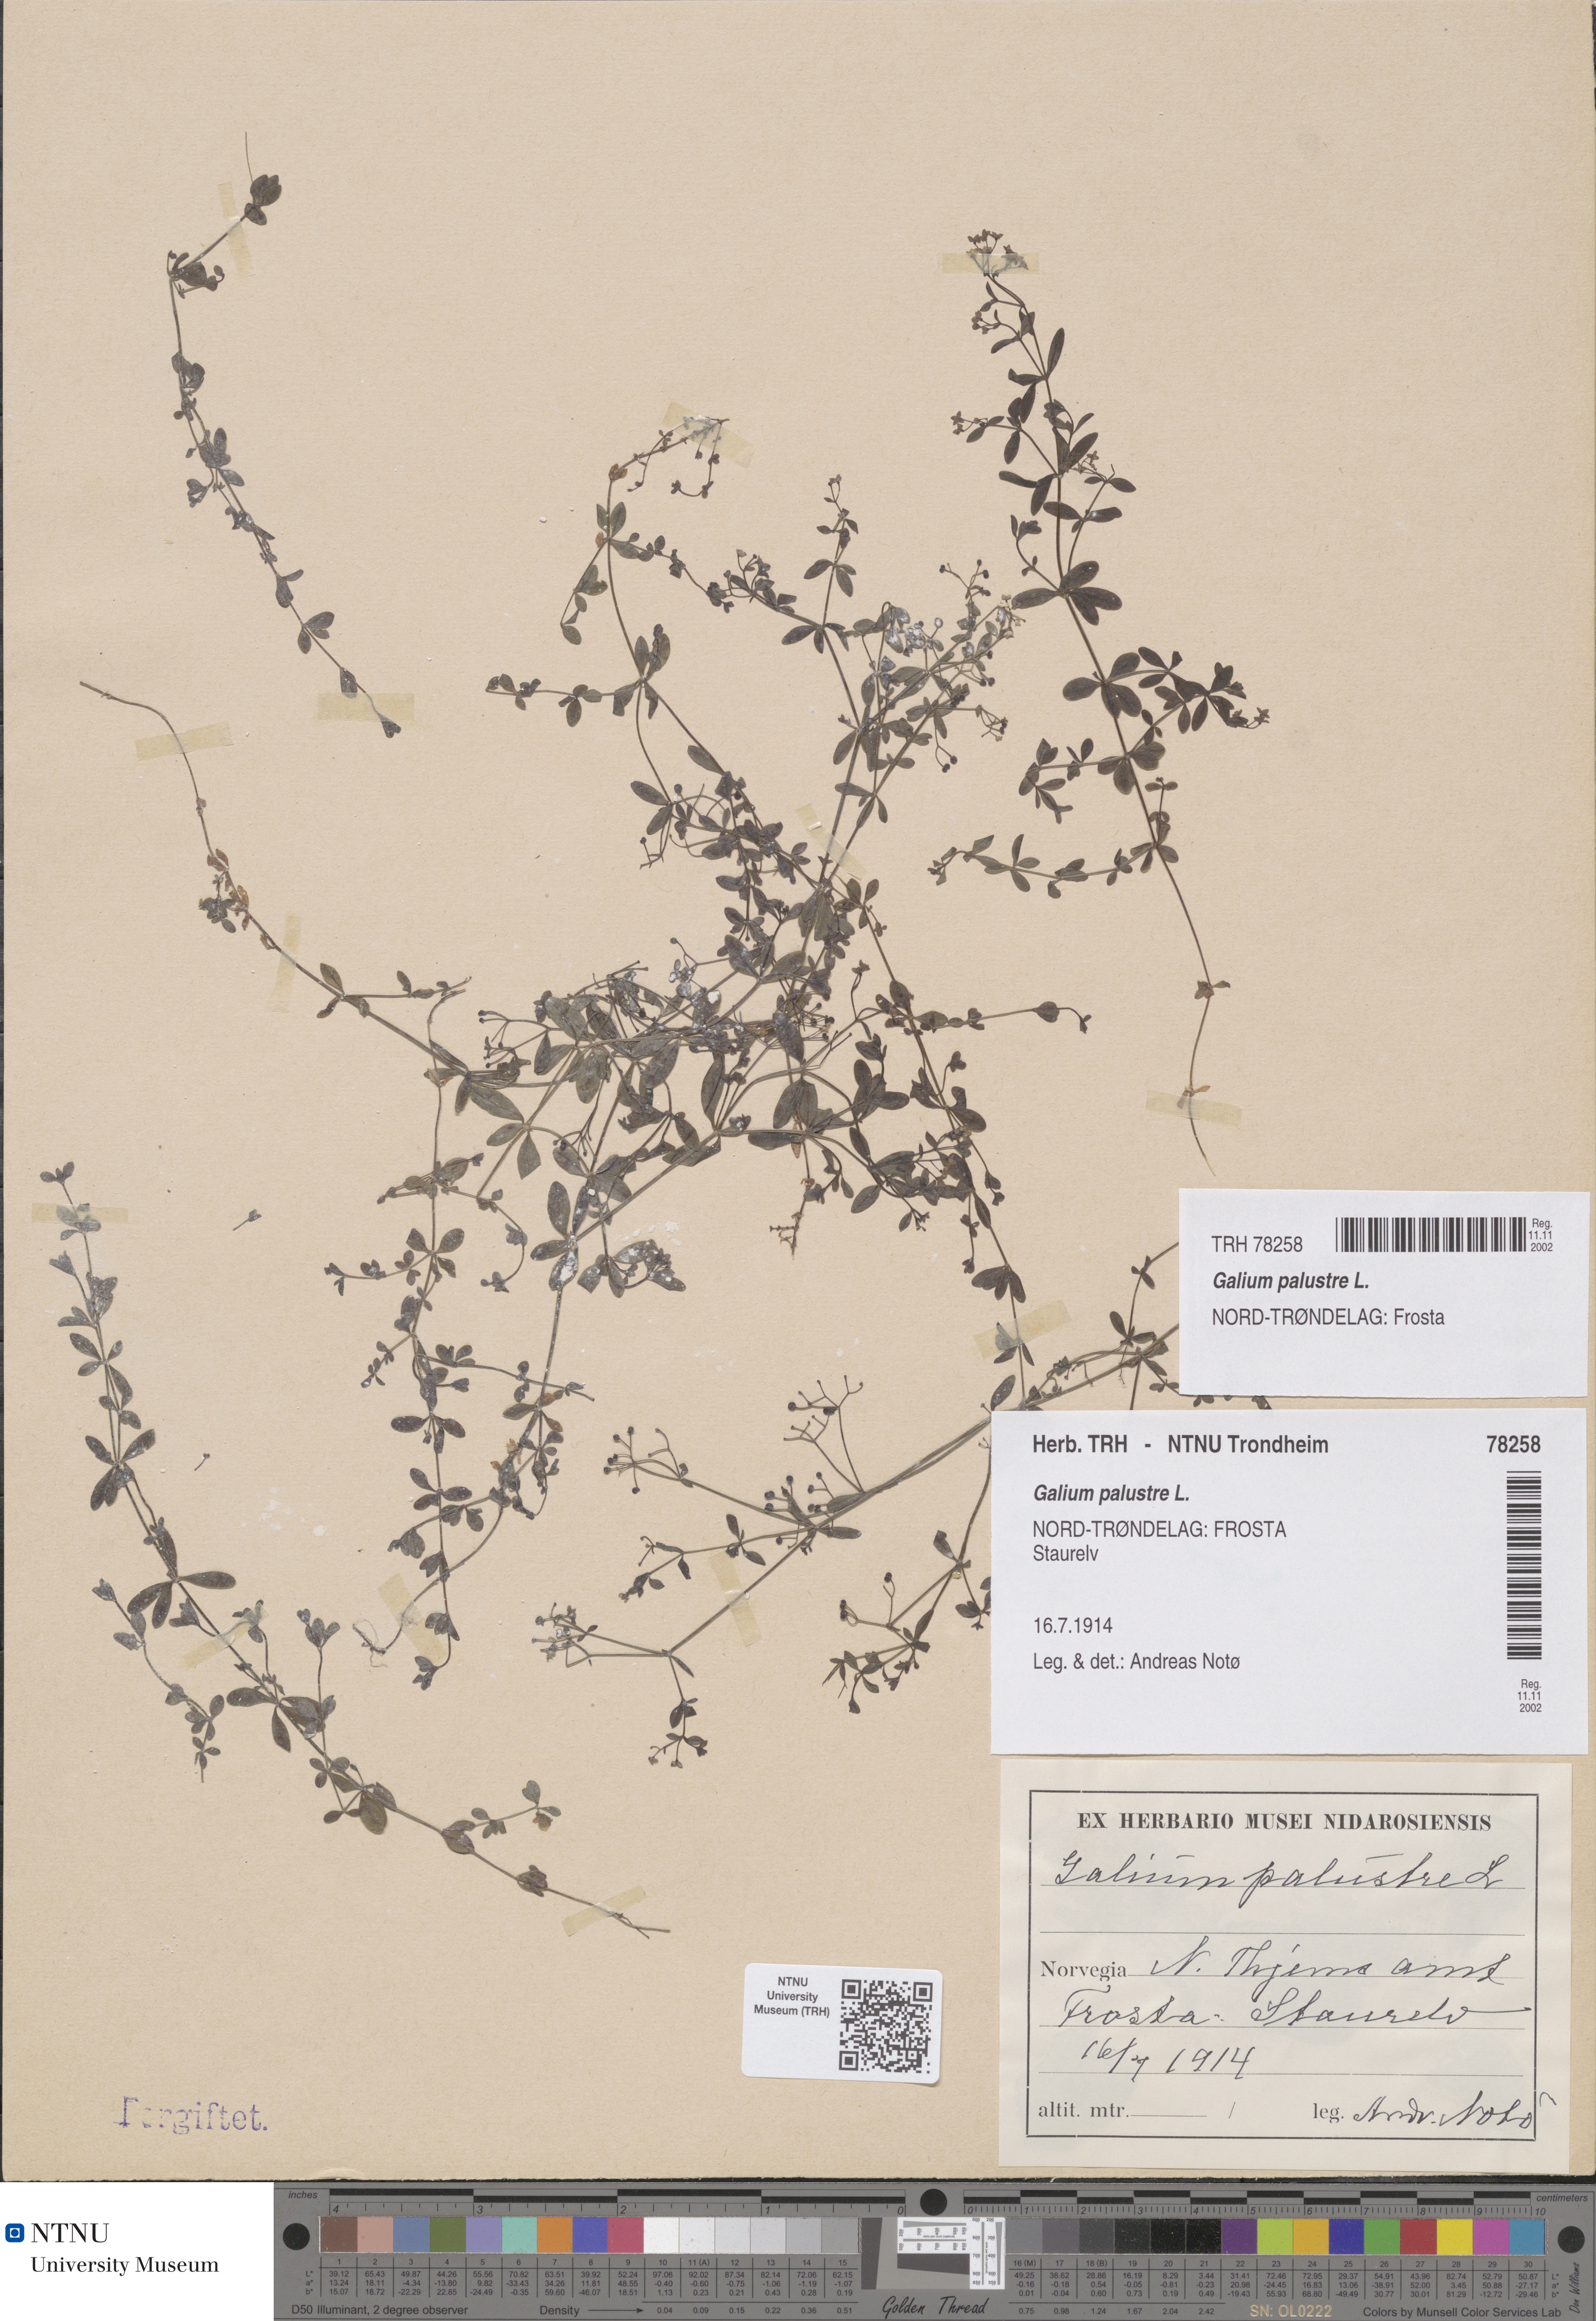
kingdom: Plantae
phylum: Tracheophyta
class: Magnoliopsida
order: Gentianales
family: Rubiaceae
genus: Galium
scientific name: Galium palustre
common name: Common marsh-bedstraw
